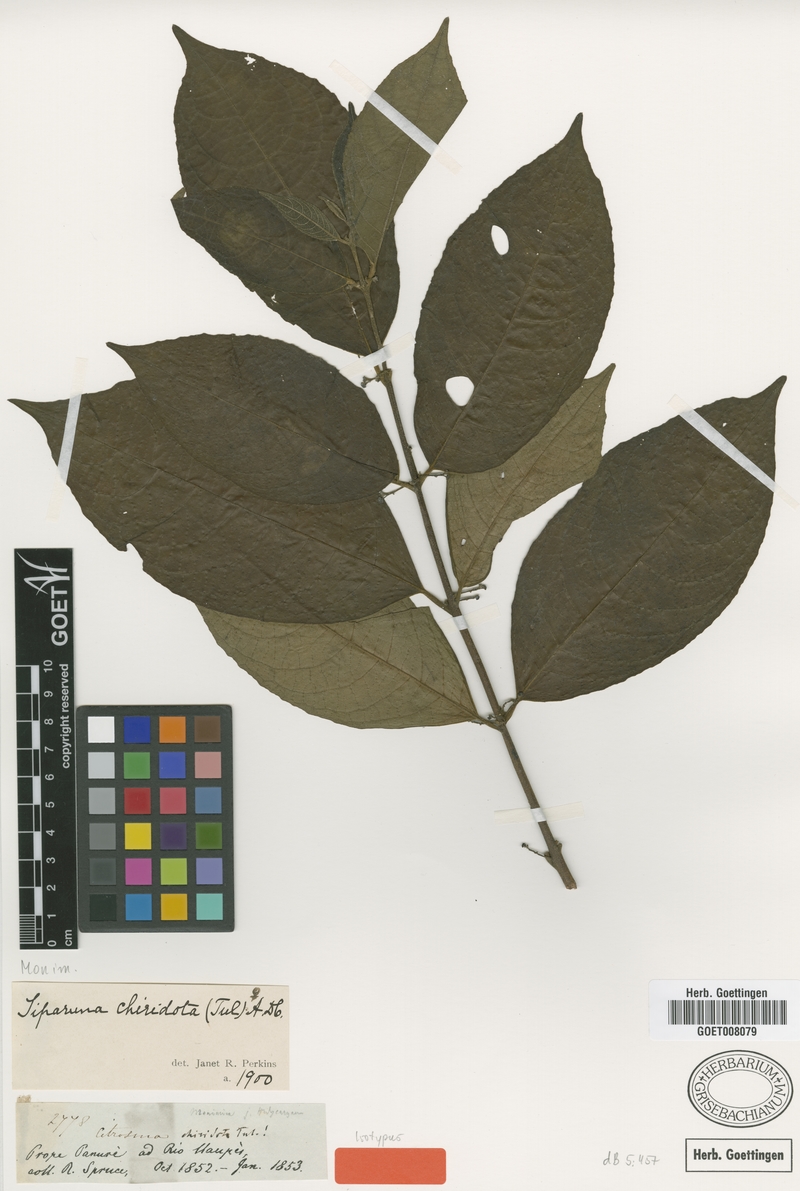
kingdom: Plantae
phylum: Tracheophyta
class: Magnoliopsida
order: Laurales
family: Siparunaceae
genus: Siparuna
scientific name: Siparuna thecaphora
